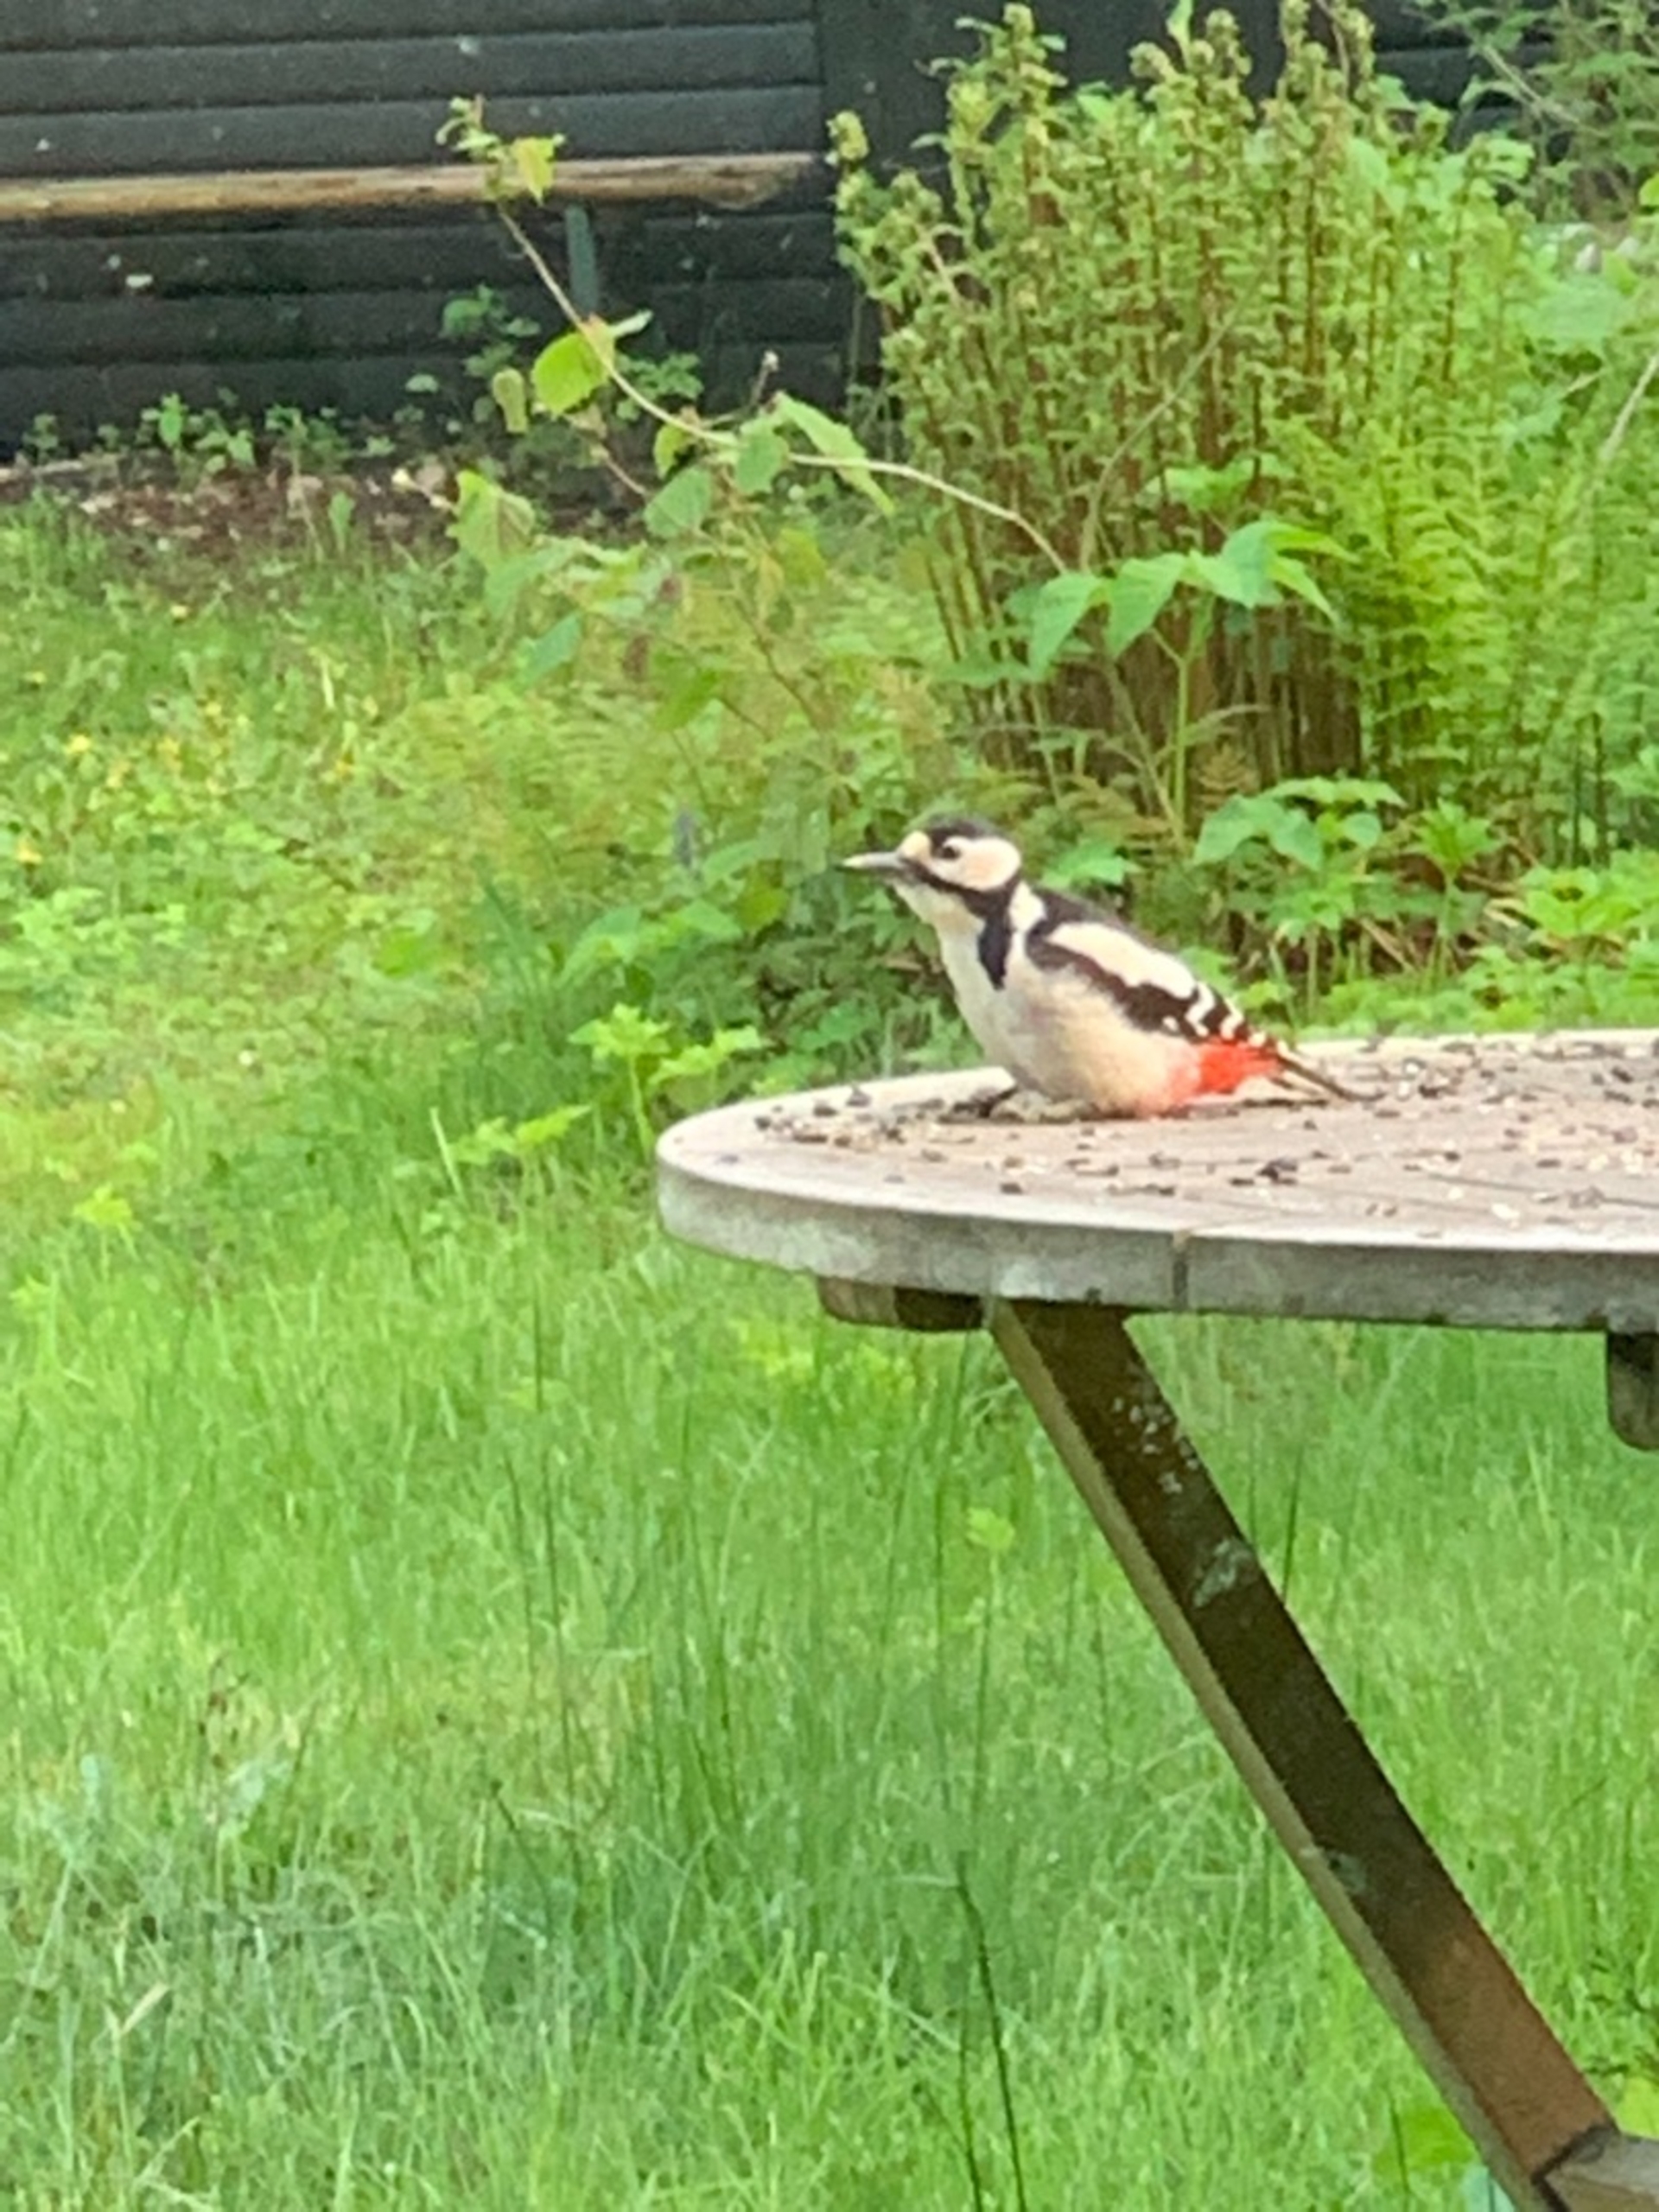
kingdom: Animalia
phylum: Chordata
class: Aves
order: Piciformes
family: Picidae
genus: Dendrocopos
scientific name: Dendrocopos major
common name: Stor flagspætte
